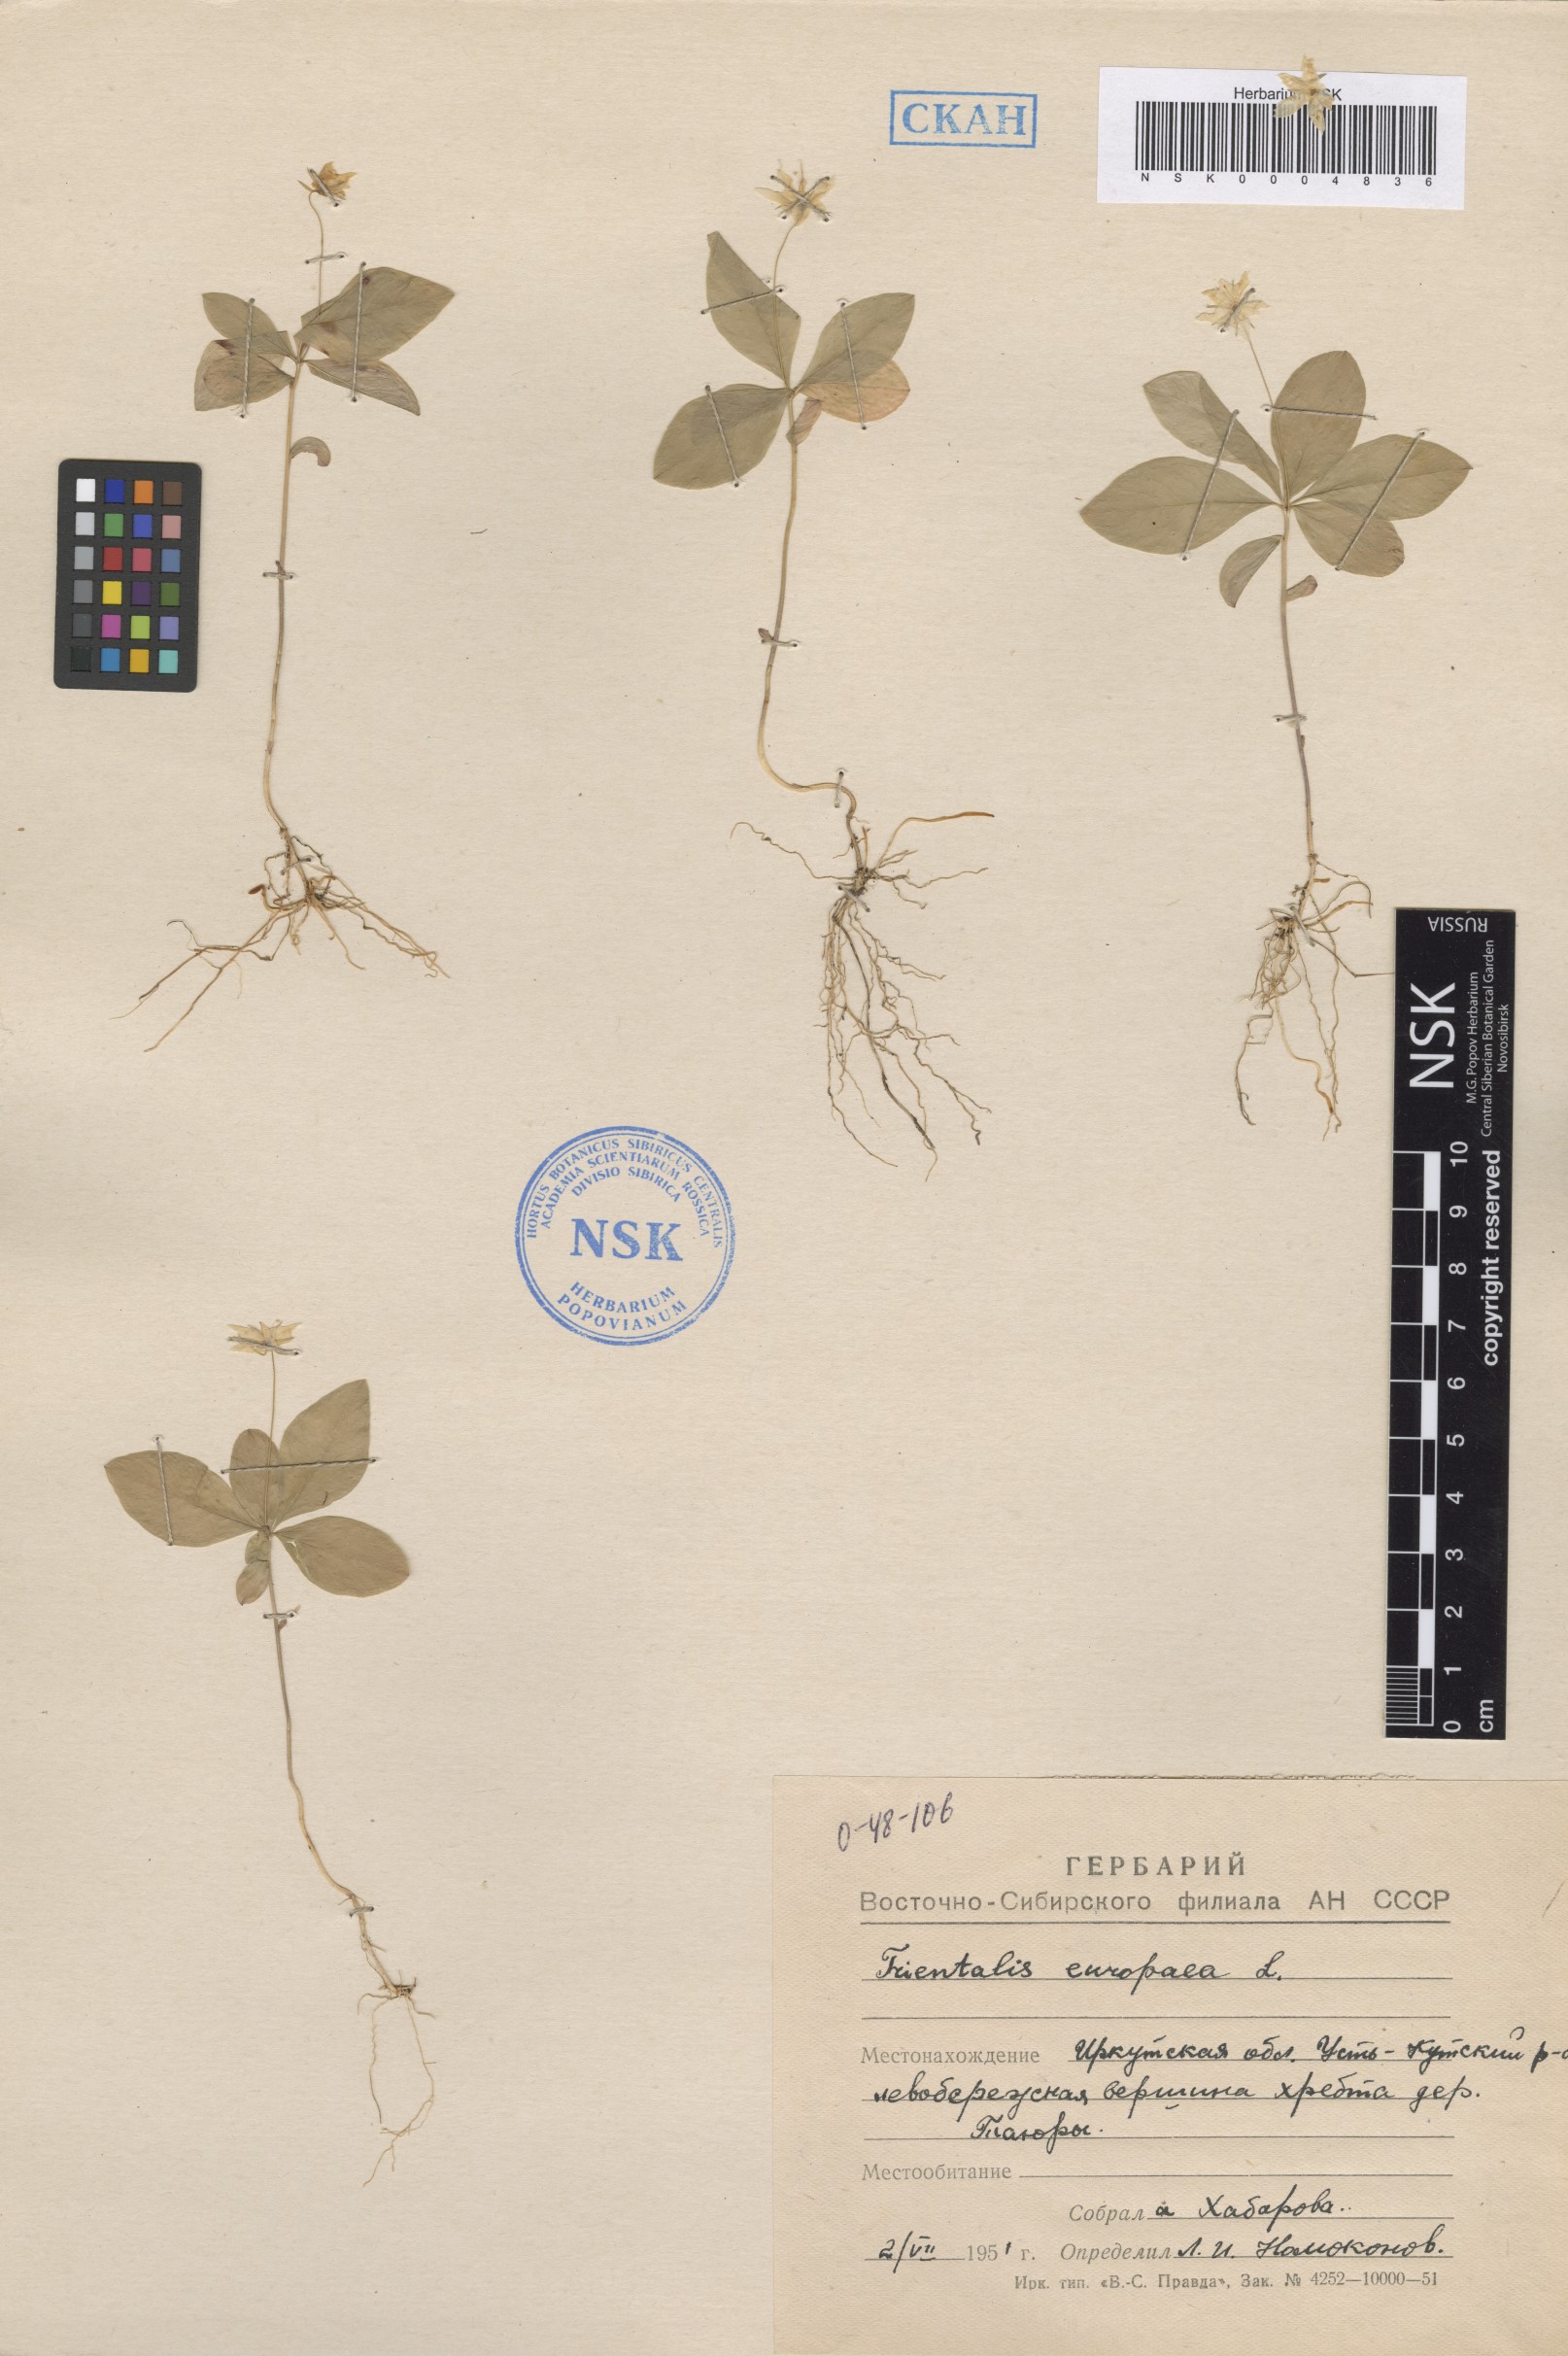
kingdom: Plantae
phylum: Tracheophyta
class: Magnoliopsida
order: Ericales
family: Primulaceae
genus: Lysimachia
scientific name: Lysimachia europaea
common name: Arctic starflower
